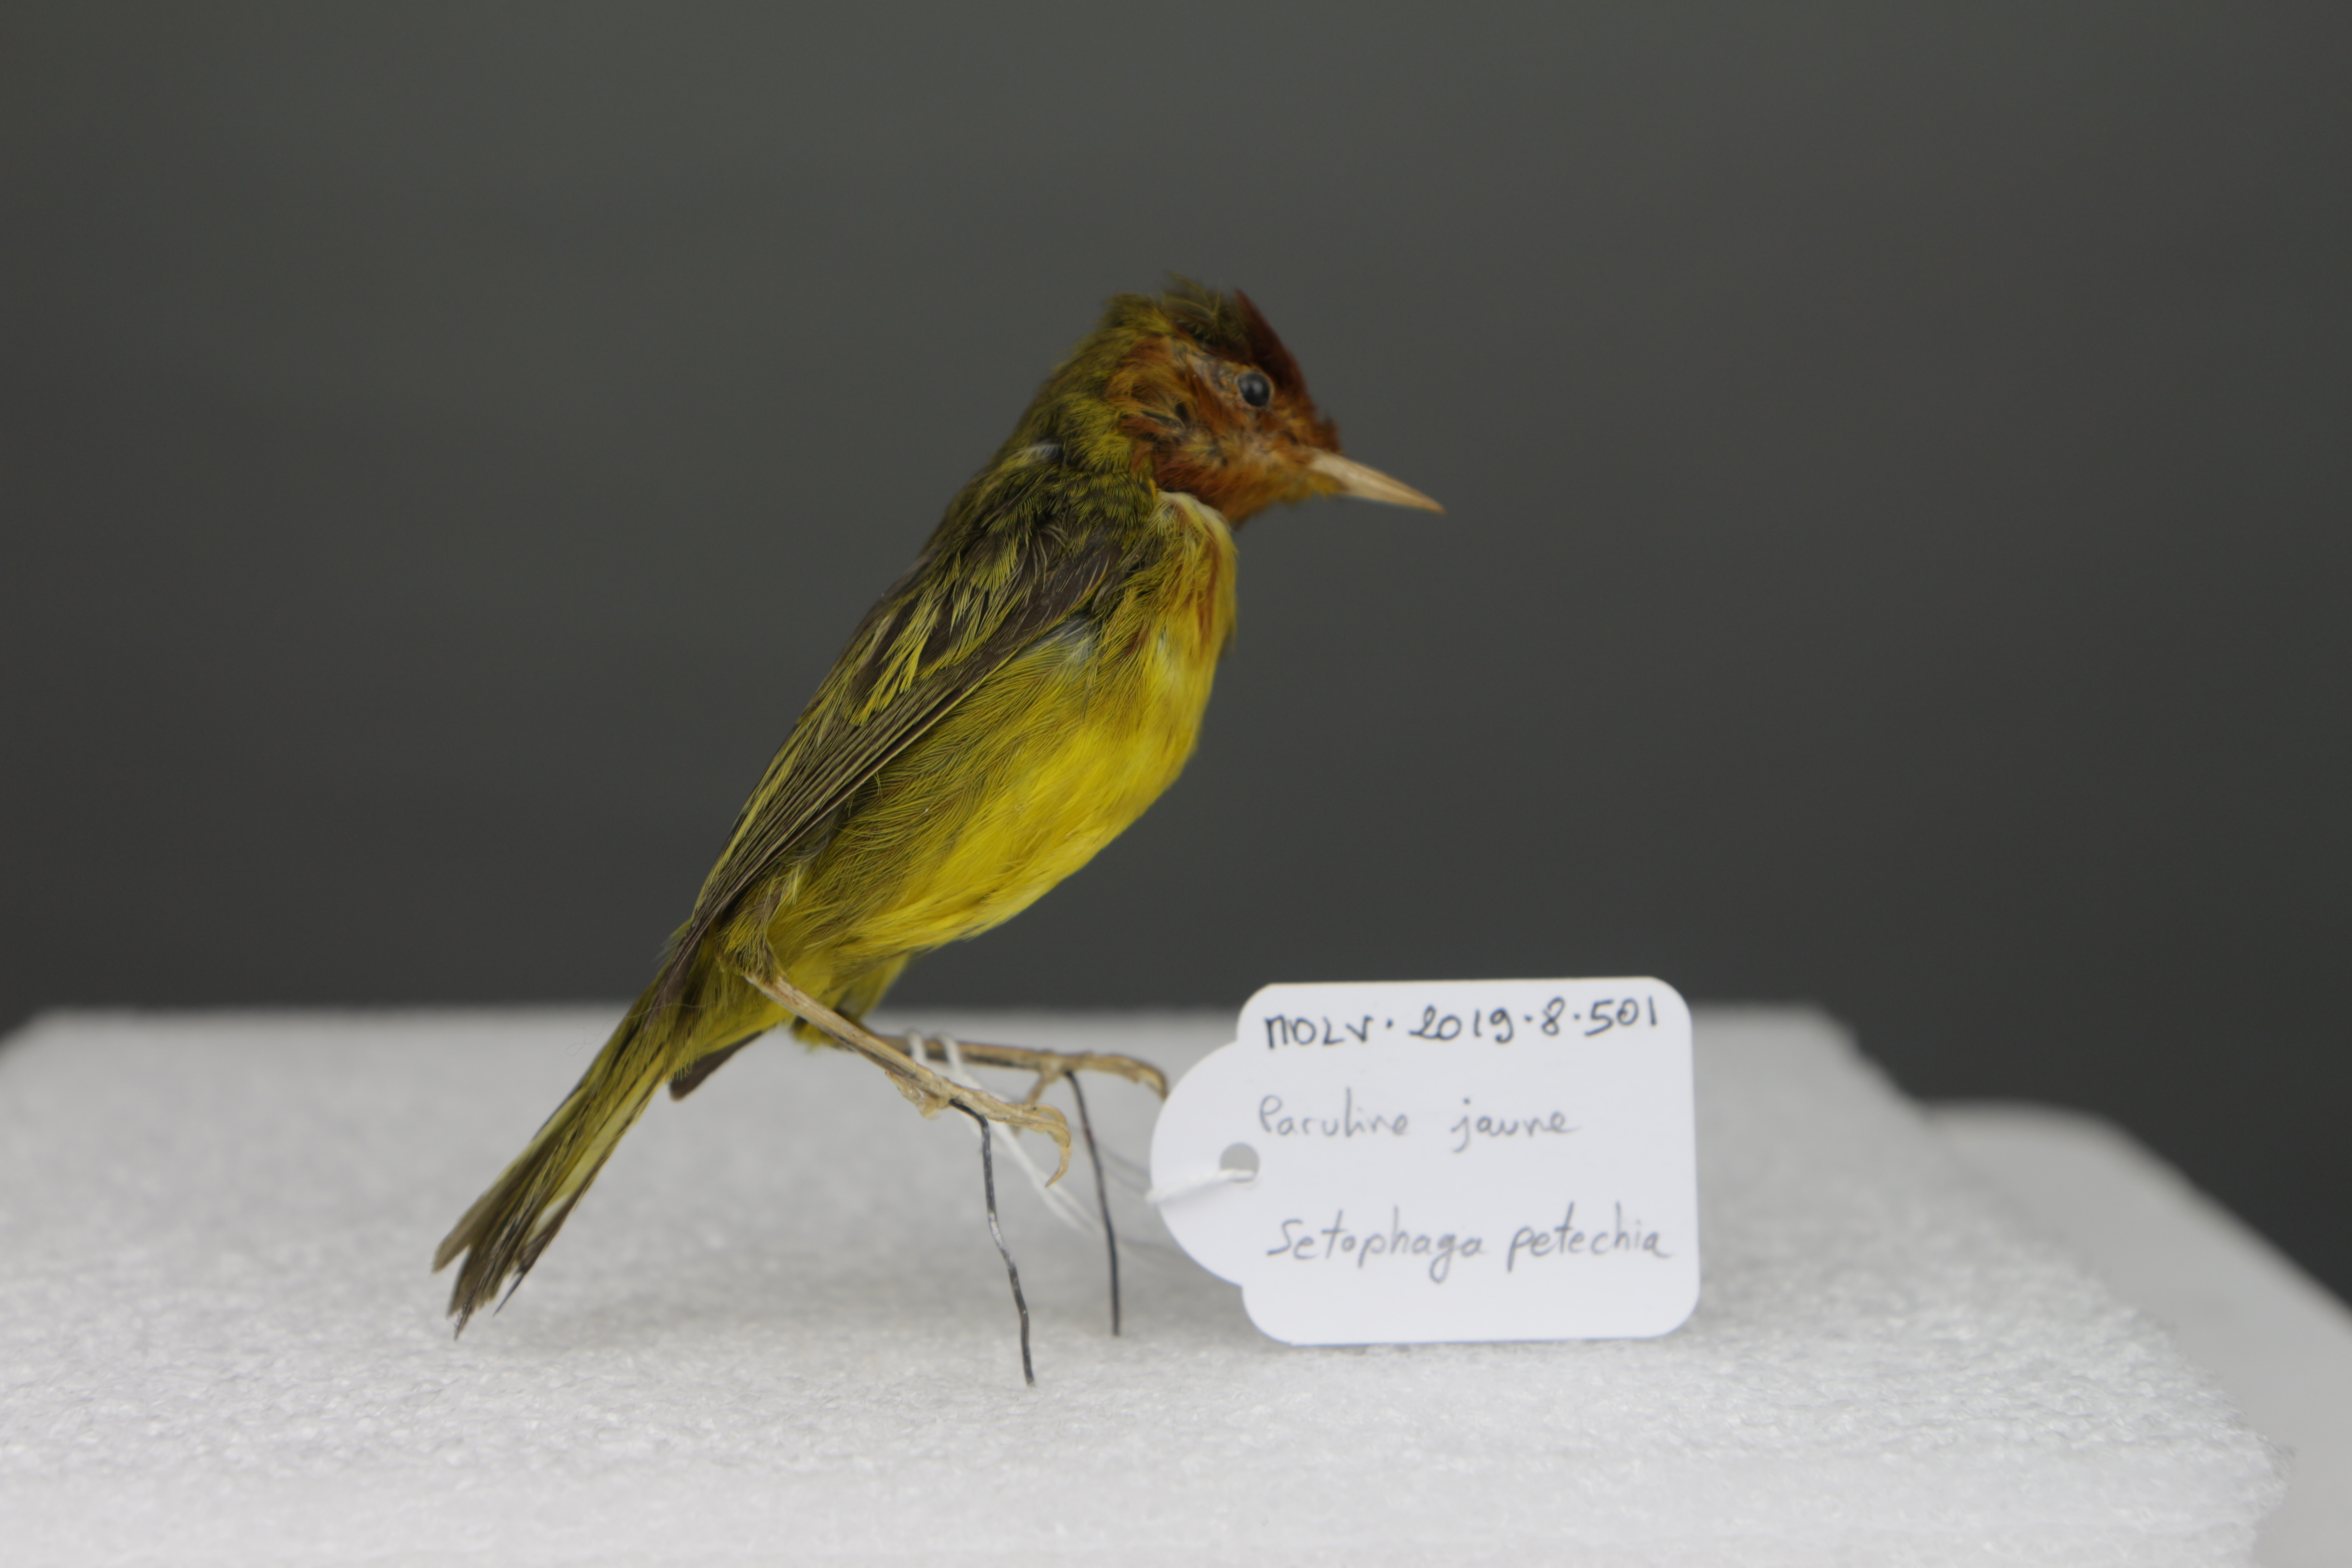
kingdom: Animalia
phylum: Chordata
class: Aves
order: Passeriformes
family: Parulidae
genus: Setophaga
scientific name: Setophaga petechia
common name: Yellow warbler
